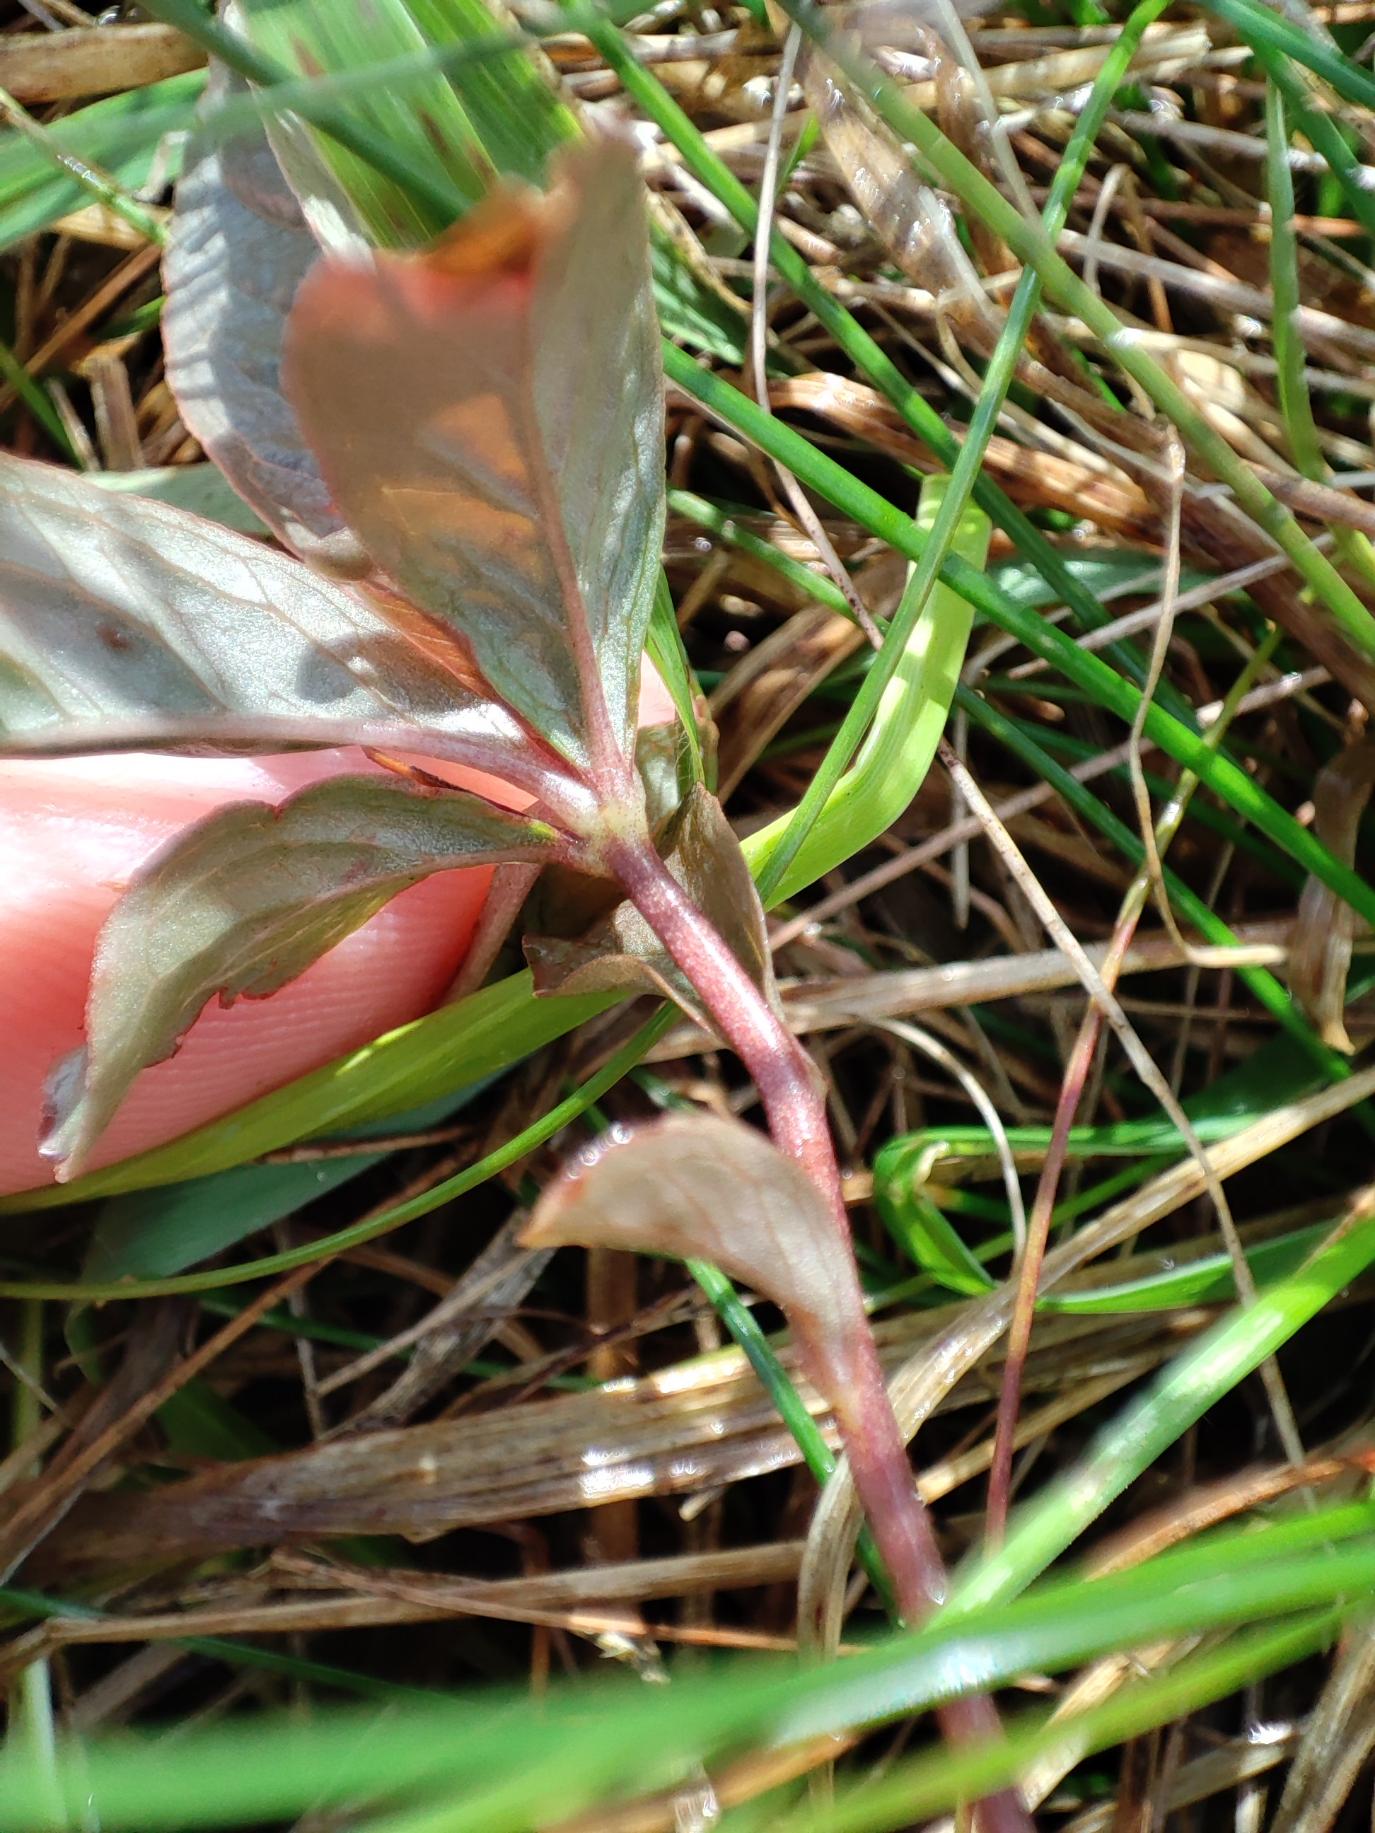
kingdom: Plantae
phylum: Tracheophyta
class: Magnoliopsida
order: Ericales
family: Primulaceae
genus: Lysimachia
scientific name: Lysimachia europaea
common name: Skovstjerne
